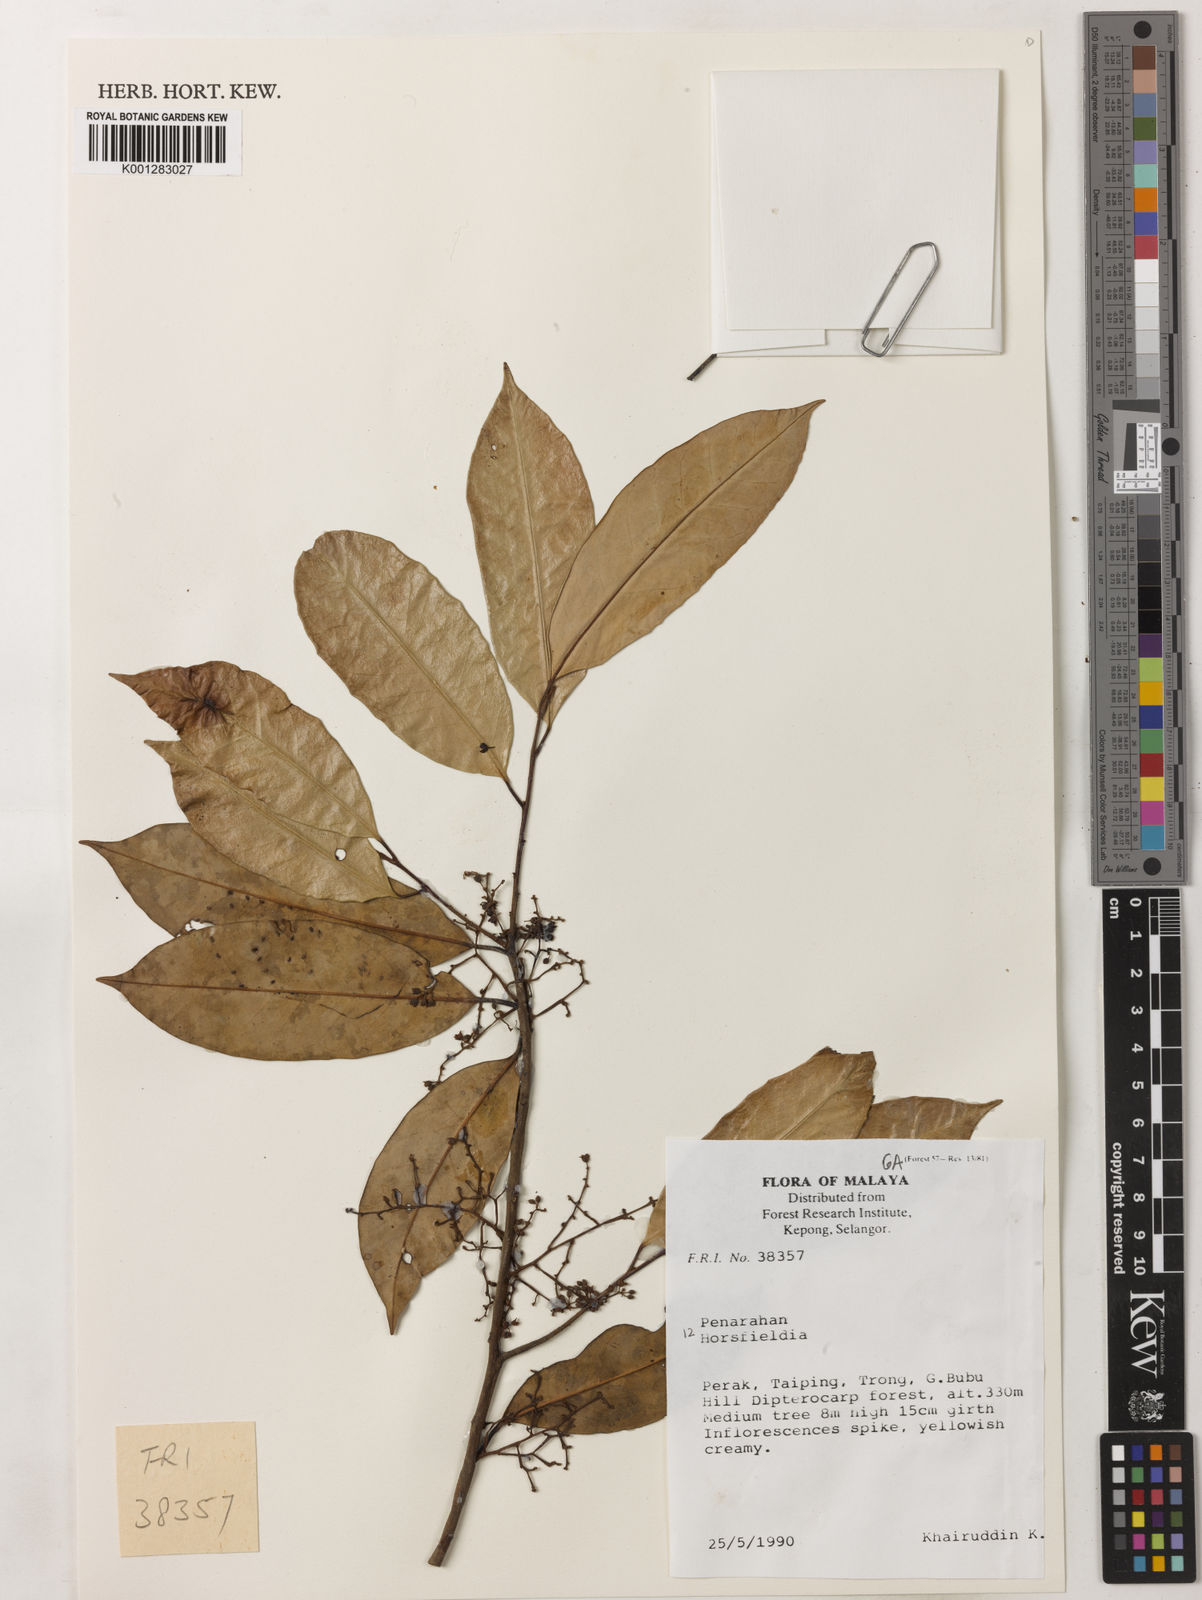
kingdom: Plantae
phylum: Tracheophyta
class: Magnoliopsida
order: Magnoliales
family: Myristicaceae
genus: Horsfieldia
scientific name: Horsfieldia
